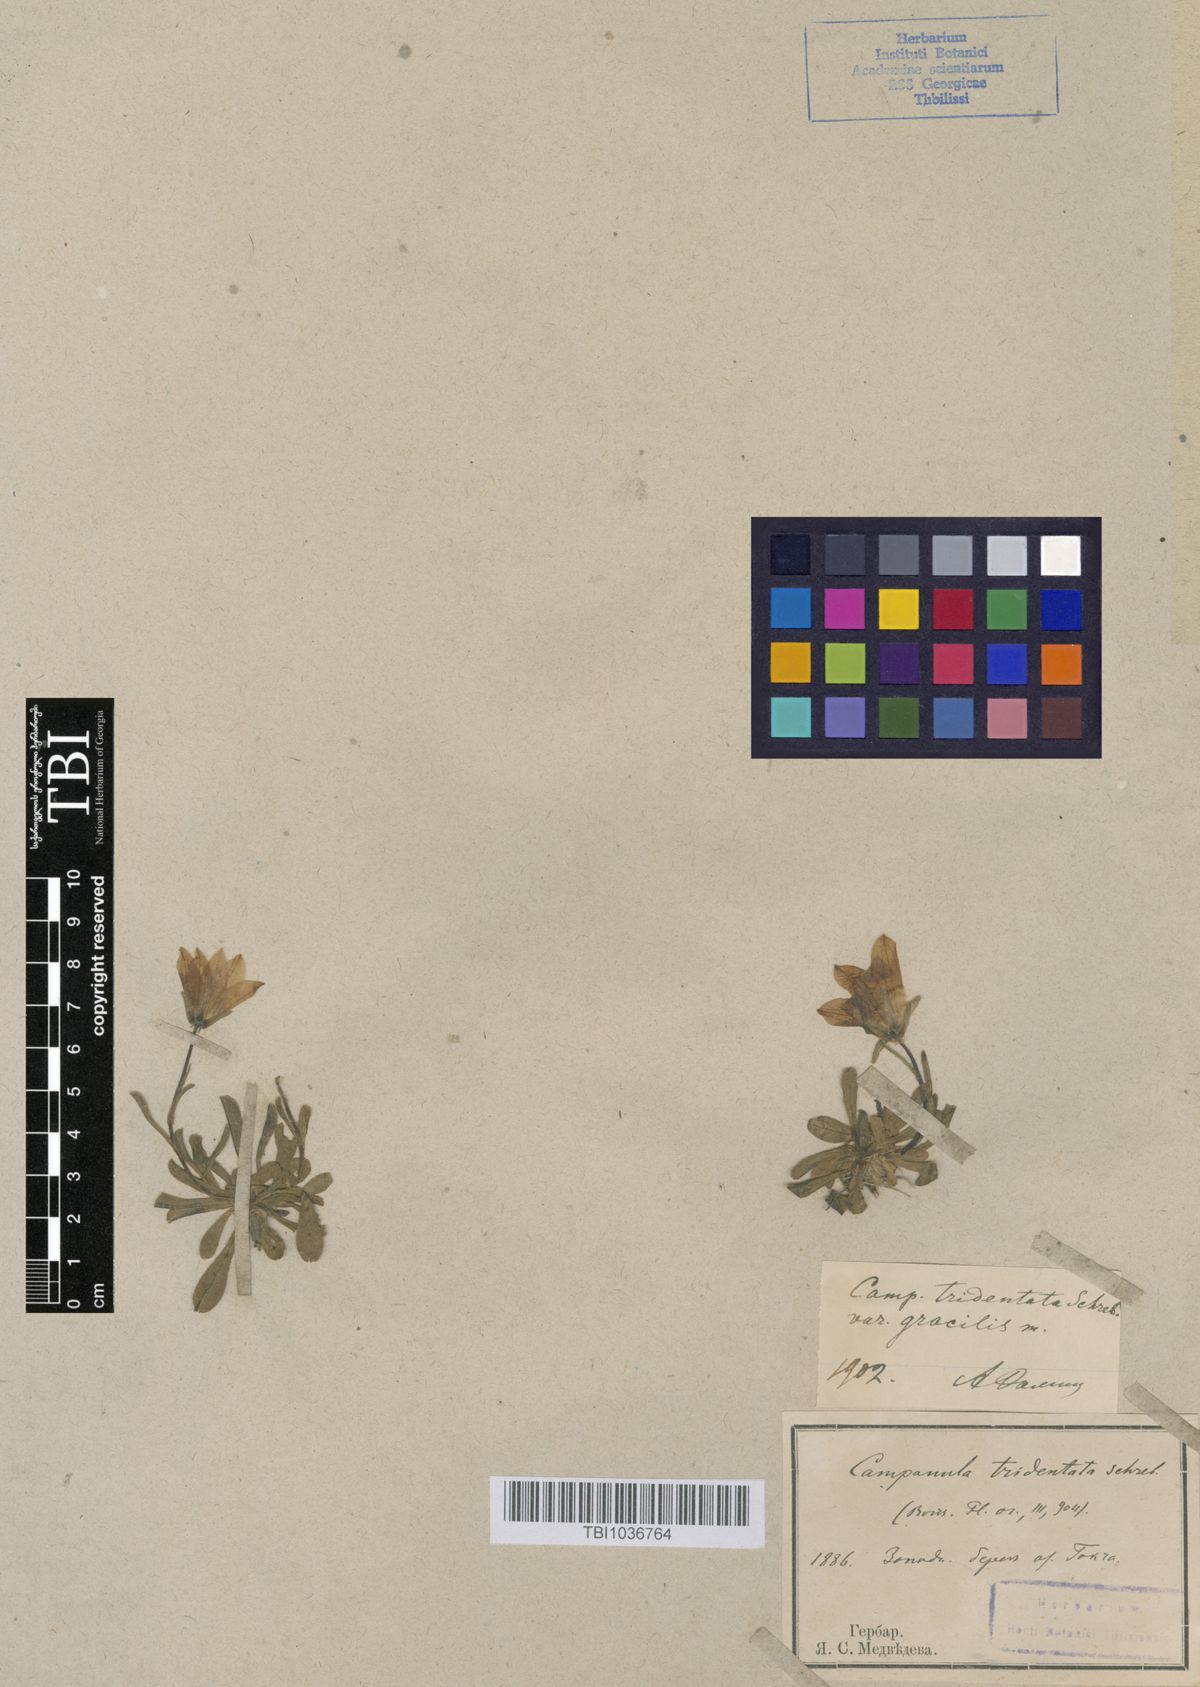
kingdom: Plantae
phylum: Tracheophyta
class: Magnoliopsida
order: Asterales
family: Campanulaceae
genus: Campanula
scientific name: Campanula tridentata
